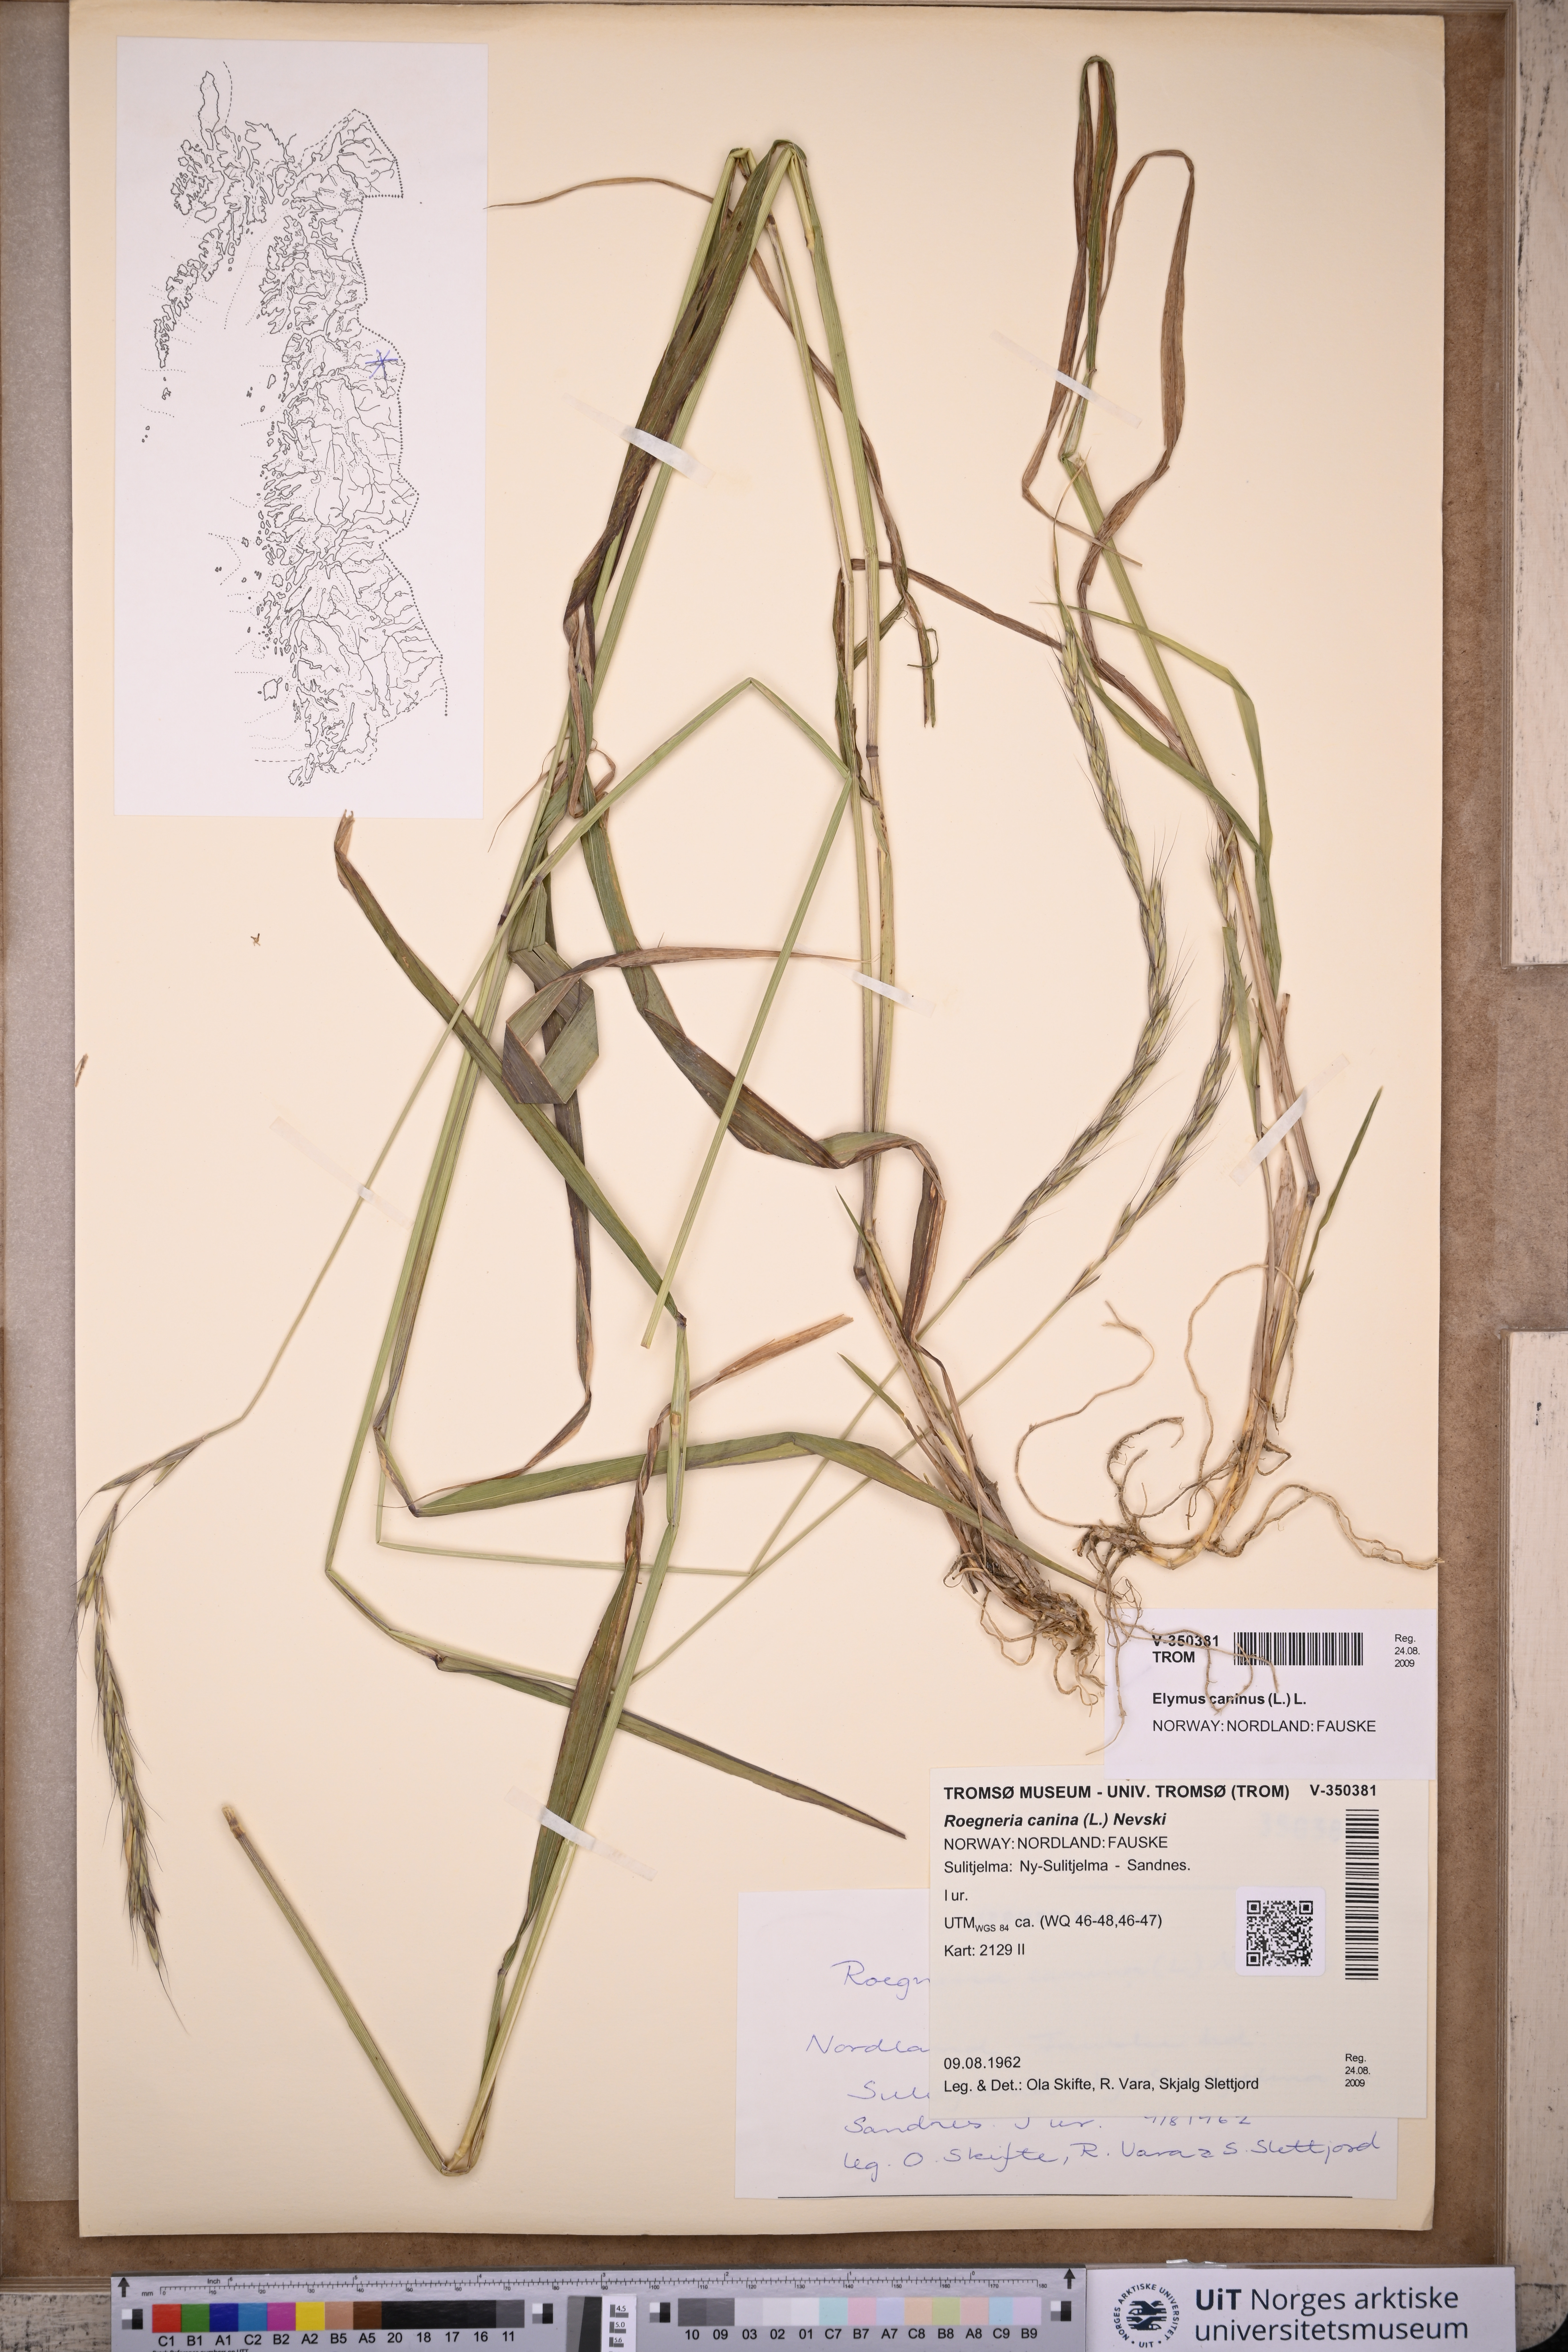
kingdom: Plantae
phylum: Tracheophyta
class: Liliopsida
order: Poales
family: Poaceae
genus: Elymus
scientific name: Elymus caninus
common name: Bearded couch
